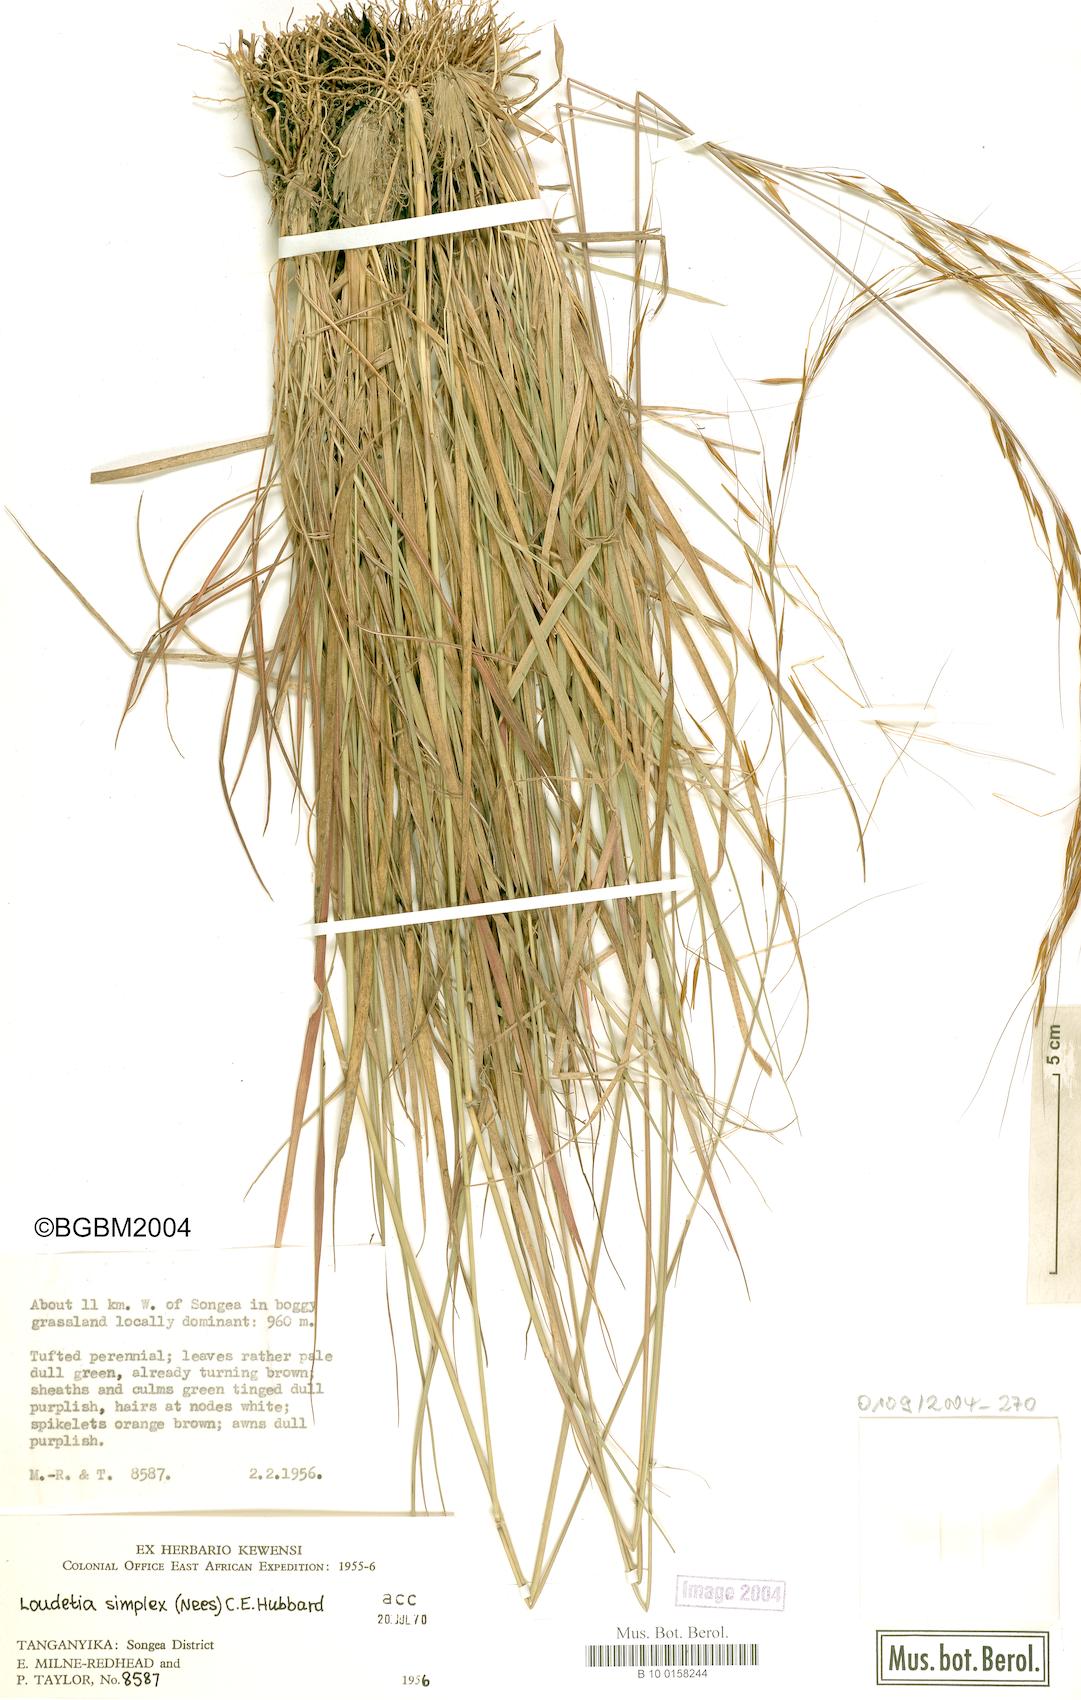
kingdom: Plantae
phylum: Tracheophyta
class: Liliopsida
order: Poales
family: Poaceae
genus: Loudetia
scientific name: Loudetia simplex
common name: Common russet grass
